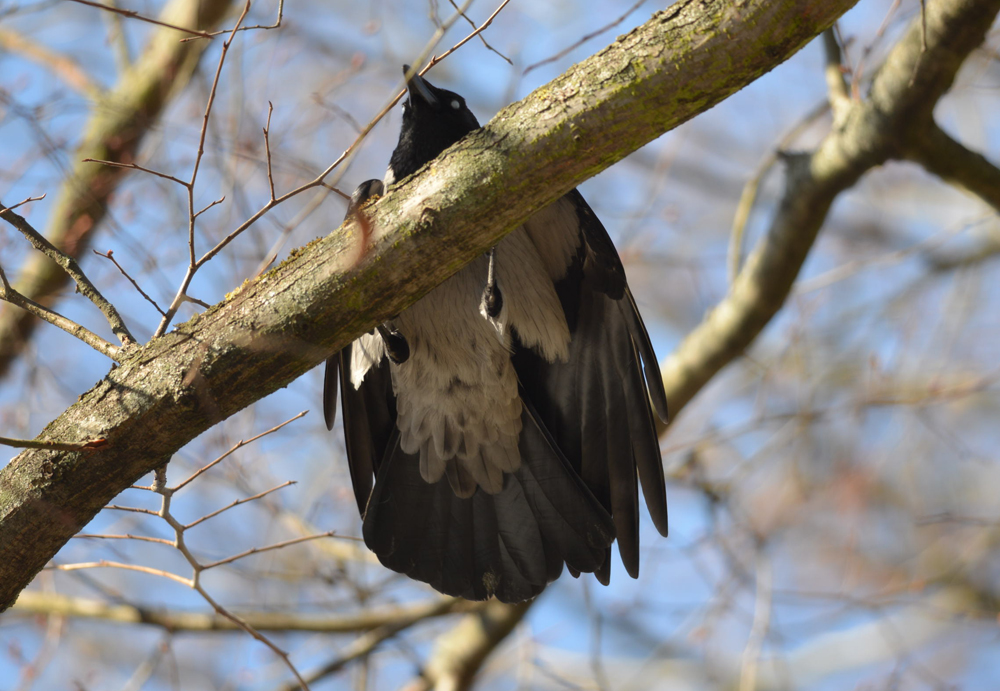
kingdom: Animalia
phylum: Chordata
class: Aves
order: Passeriformes
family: Corvidae
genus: Corvus
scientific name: Corvus cornix
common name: Hooded crow
